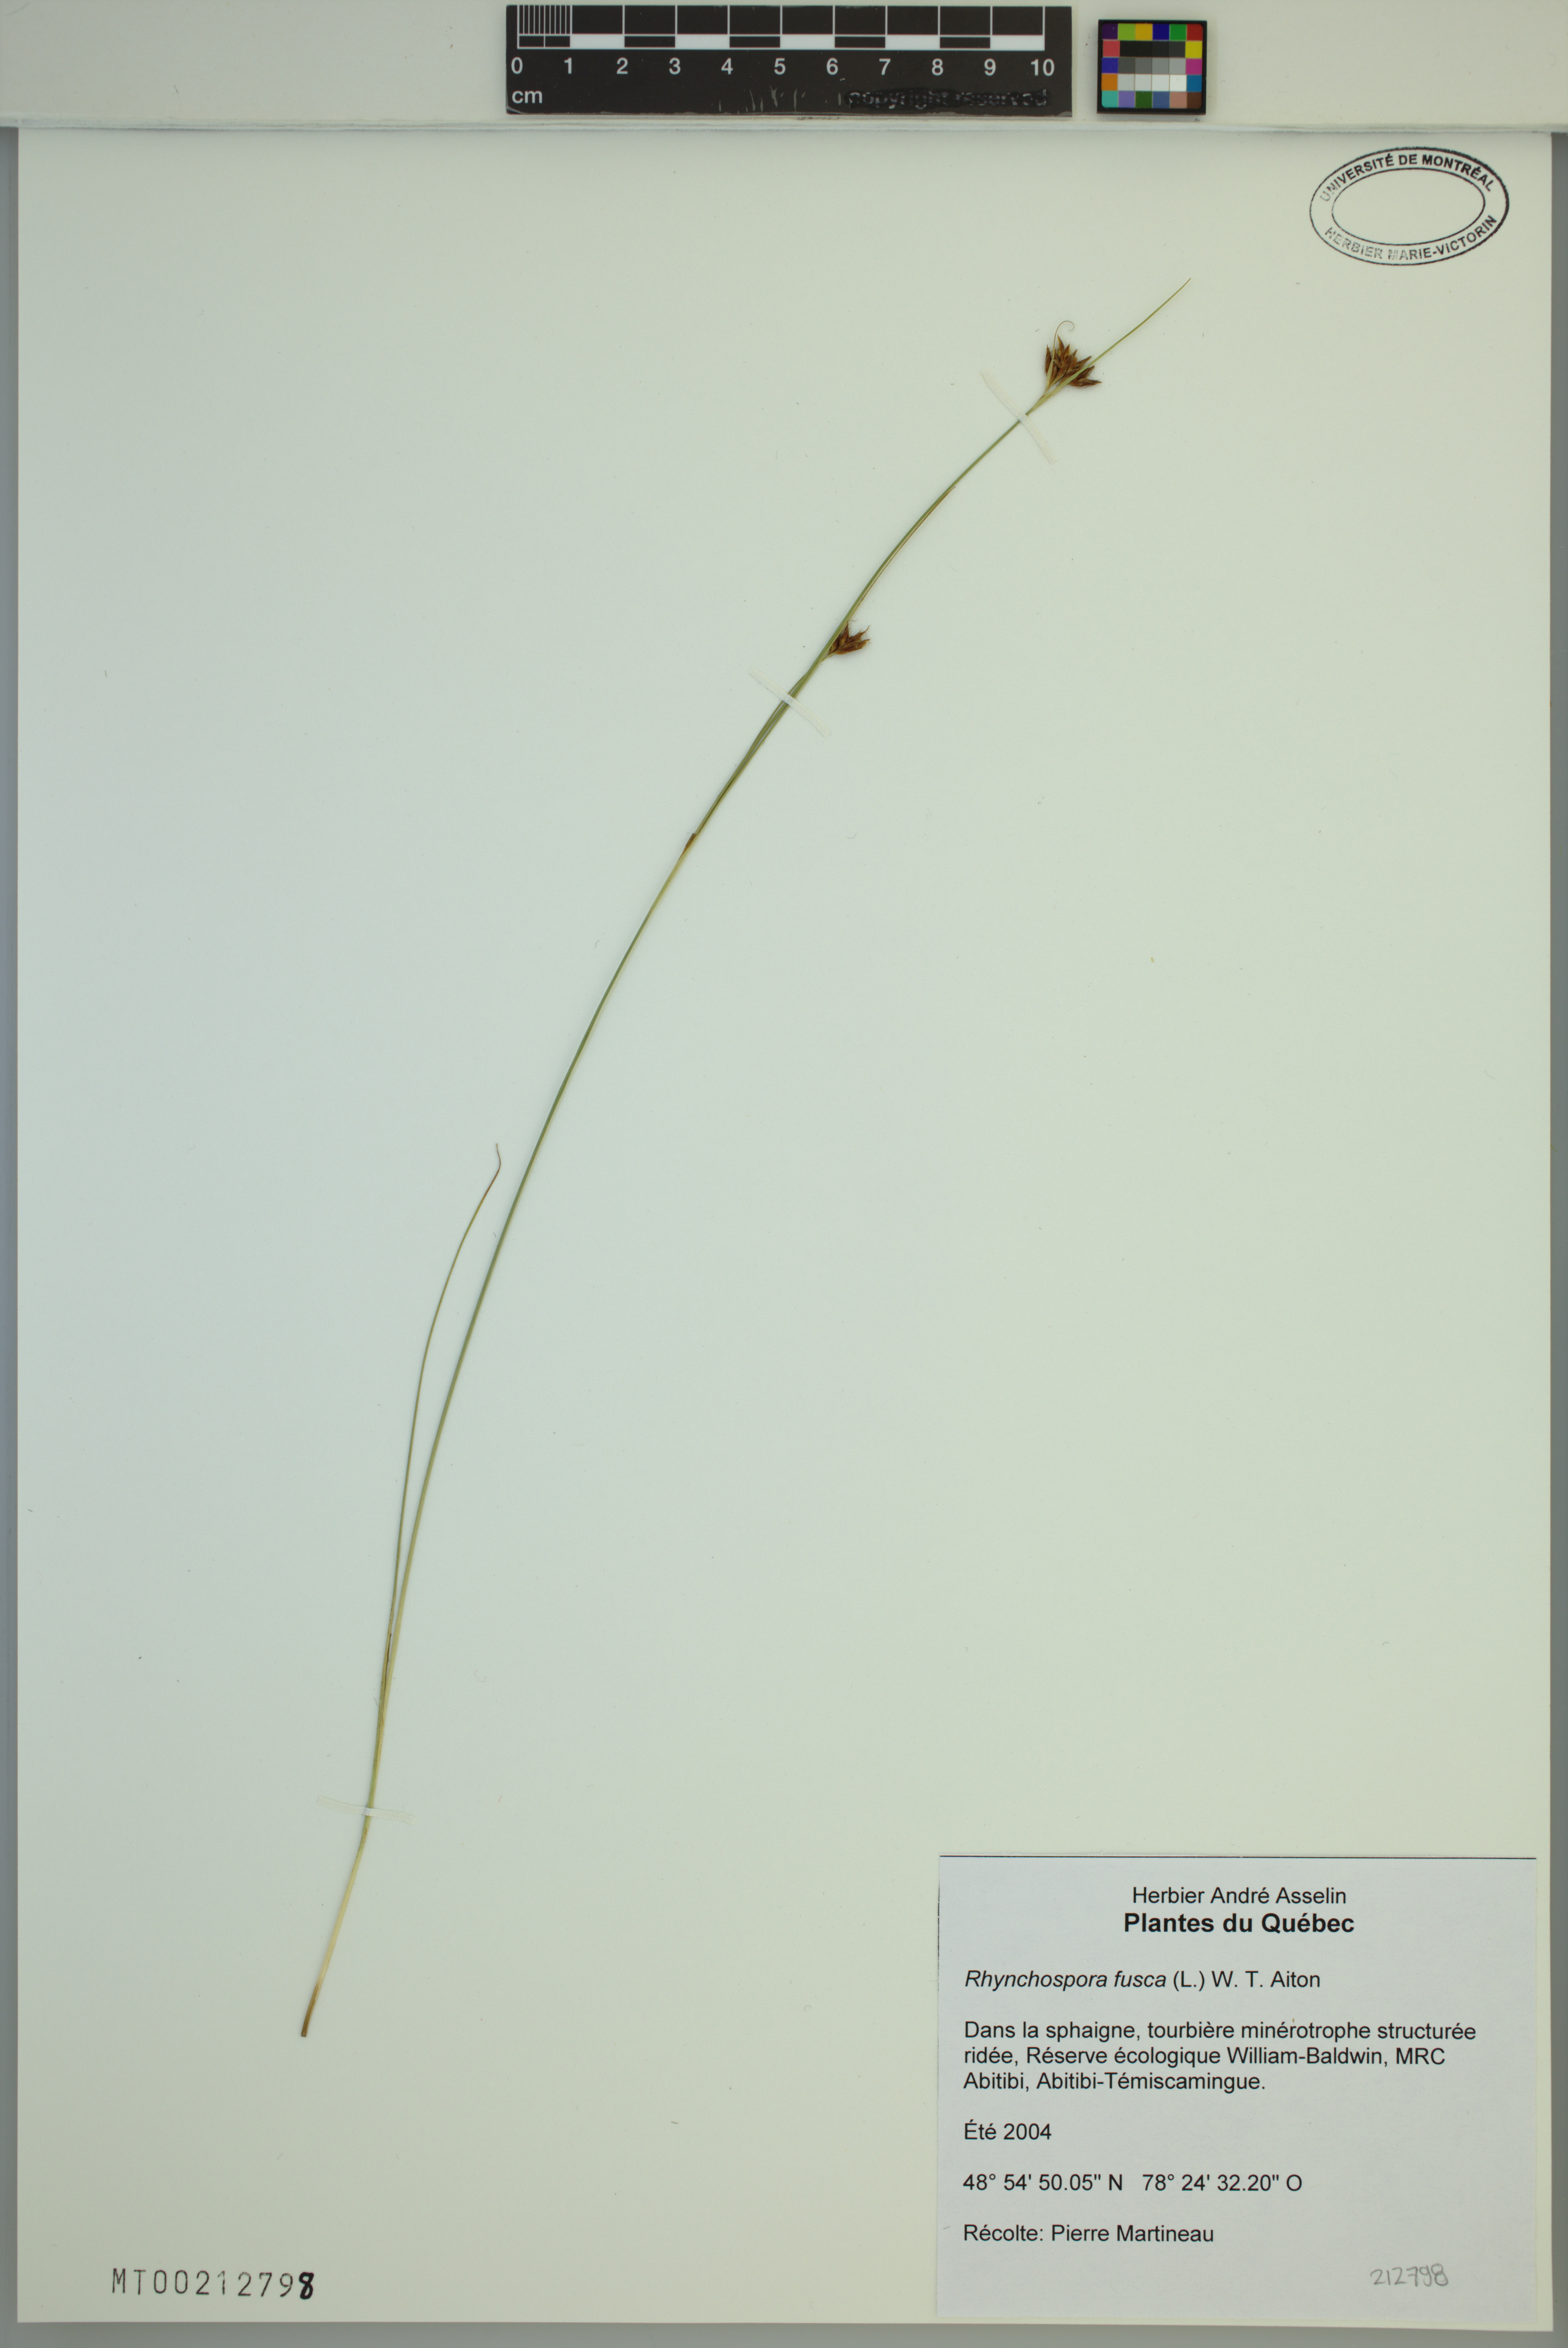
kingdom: Plantae
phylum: Tracheophyta
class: Liliopsida
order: Poales
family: Cyperaceae
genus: Rhynchospora
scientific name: Rhynchospora fusca
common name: Brown beak-sedge
